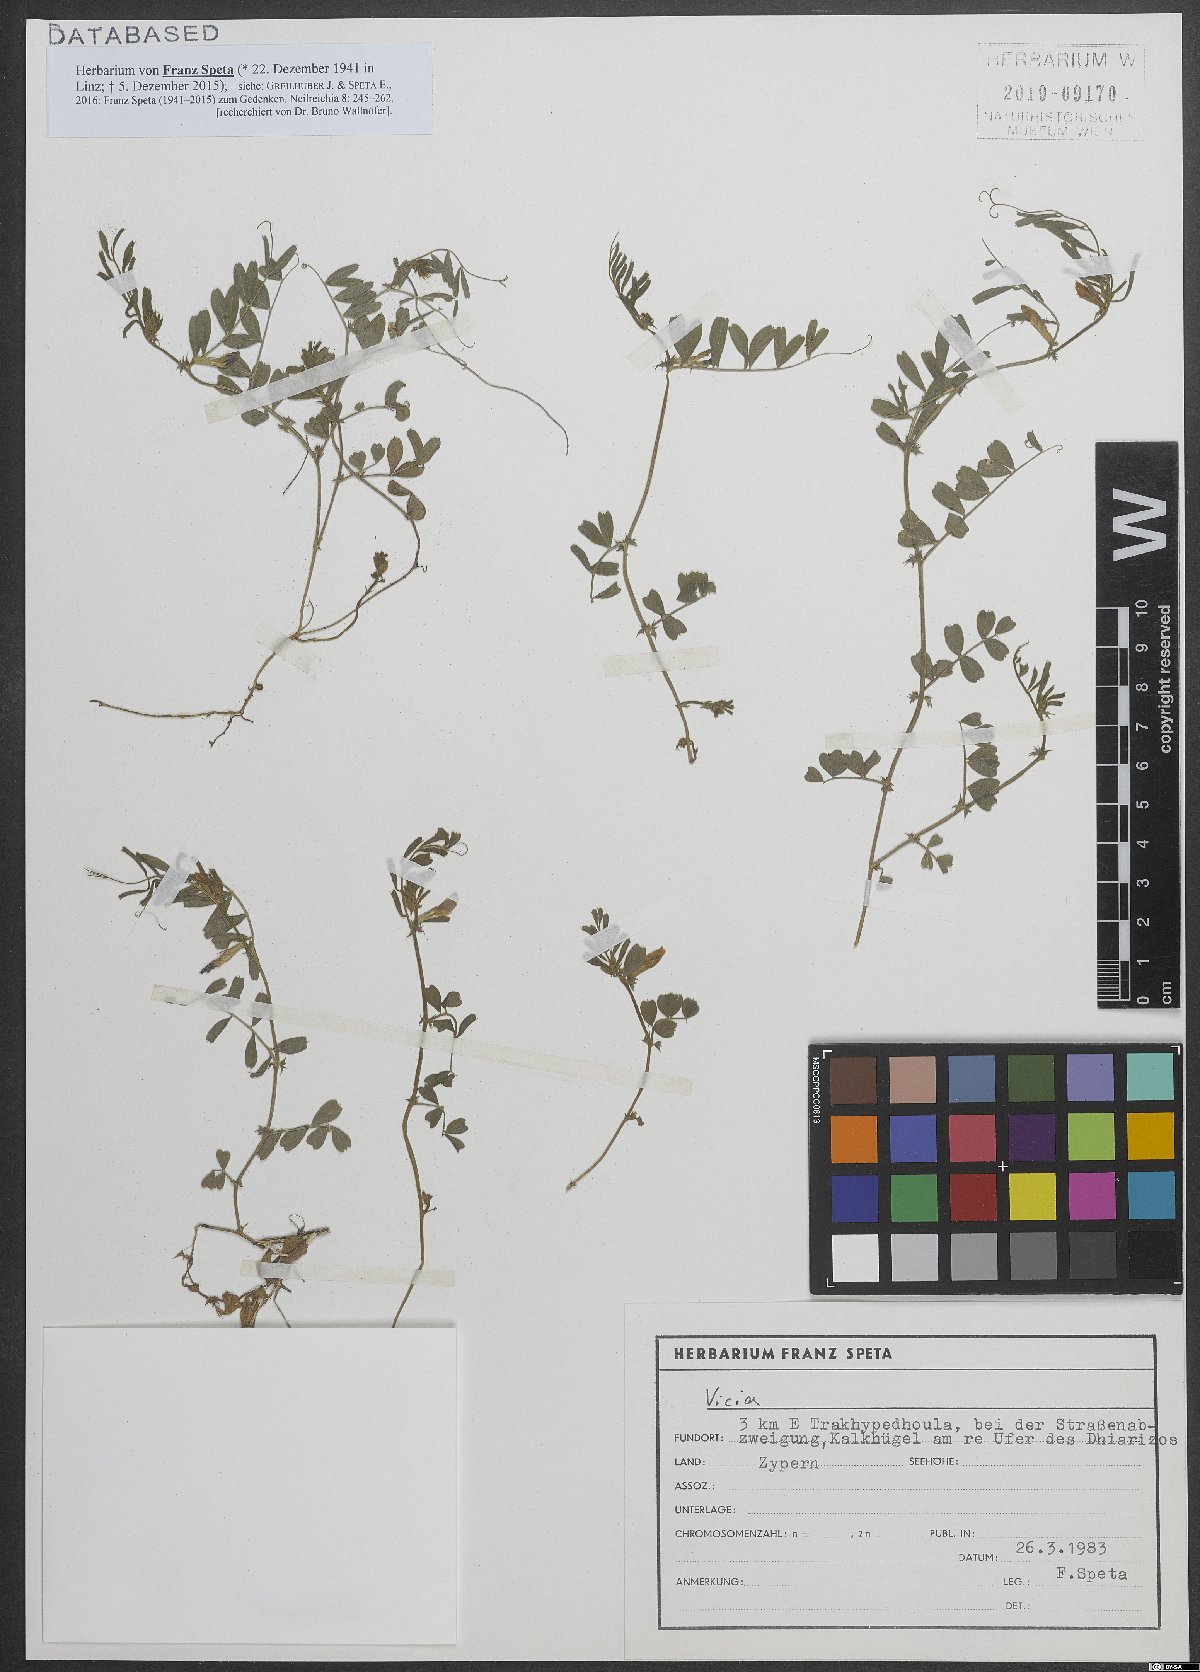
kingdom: Plantae
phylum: Tracheophyta
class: Magnoliopsida
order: Fabales
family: Fabaceae
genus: Vicia
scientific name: Vicia
